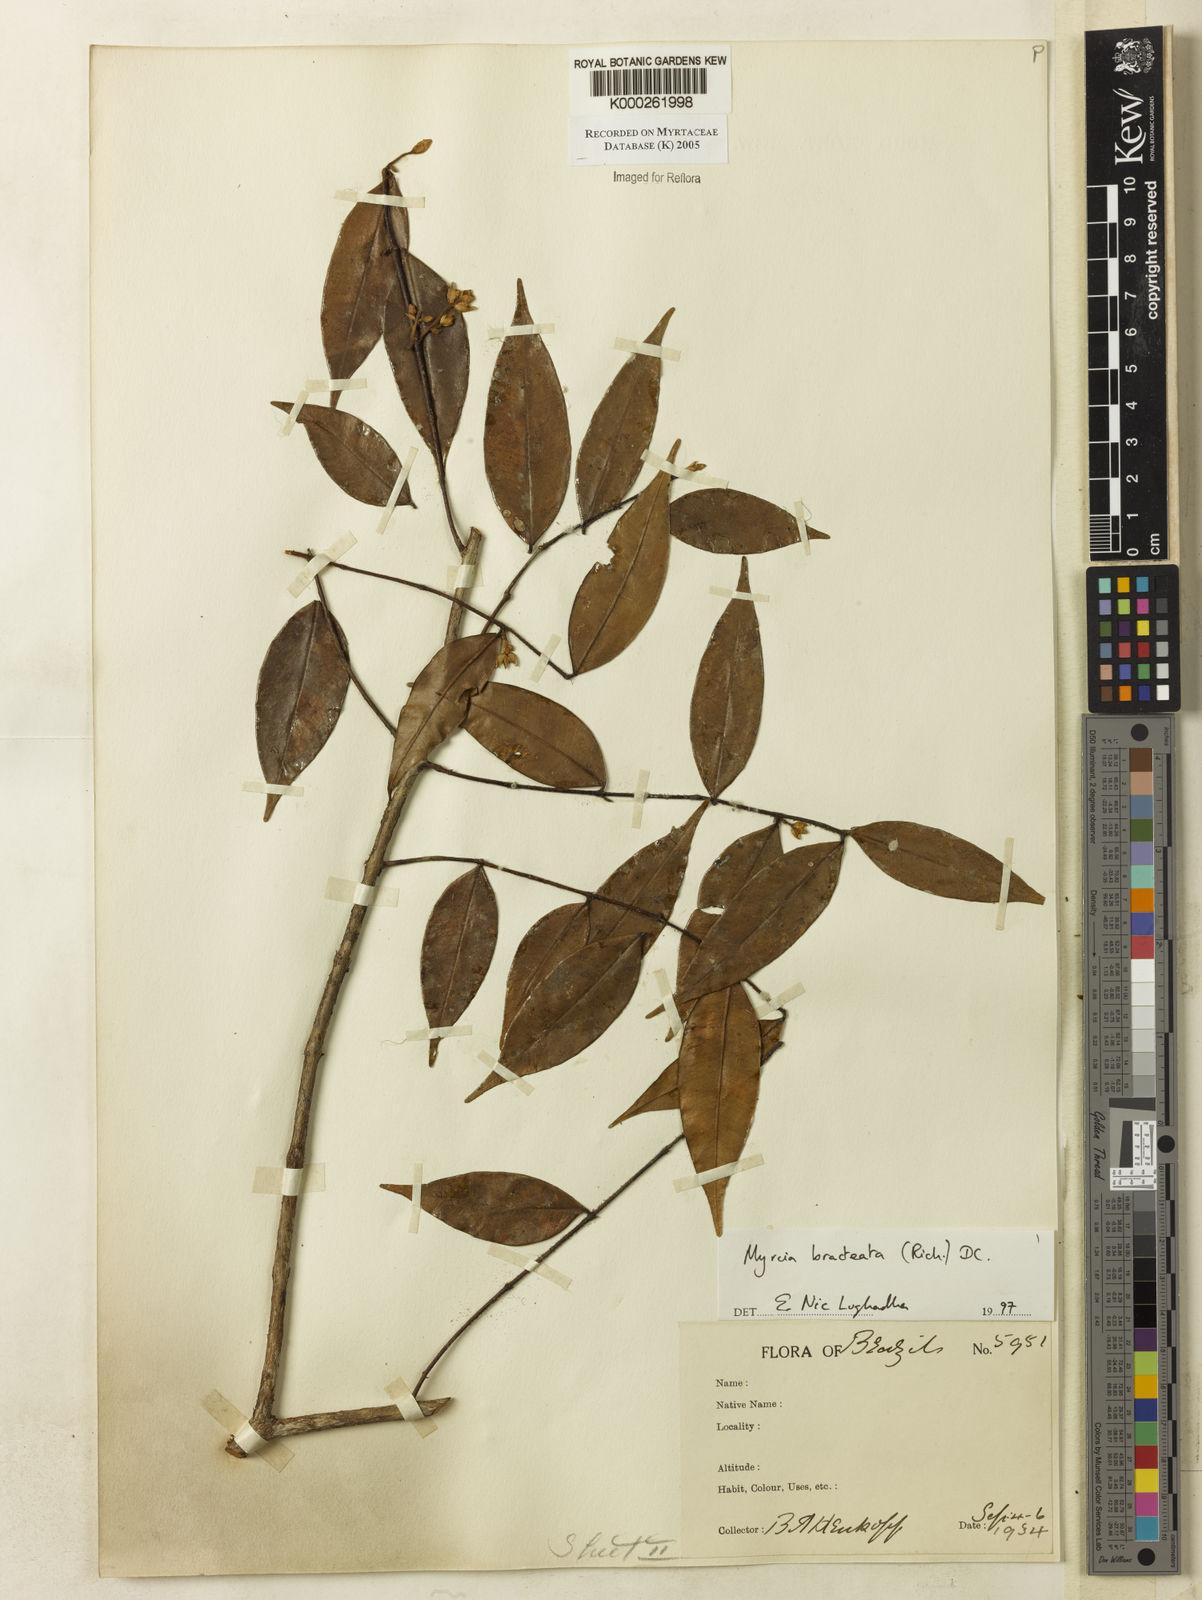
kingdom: Plantae
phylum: Tracheophyta
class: Magnoliopsida
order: Myrtales
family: Myrtaceae
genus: Myrcia
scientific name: Myrcia bracteata
